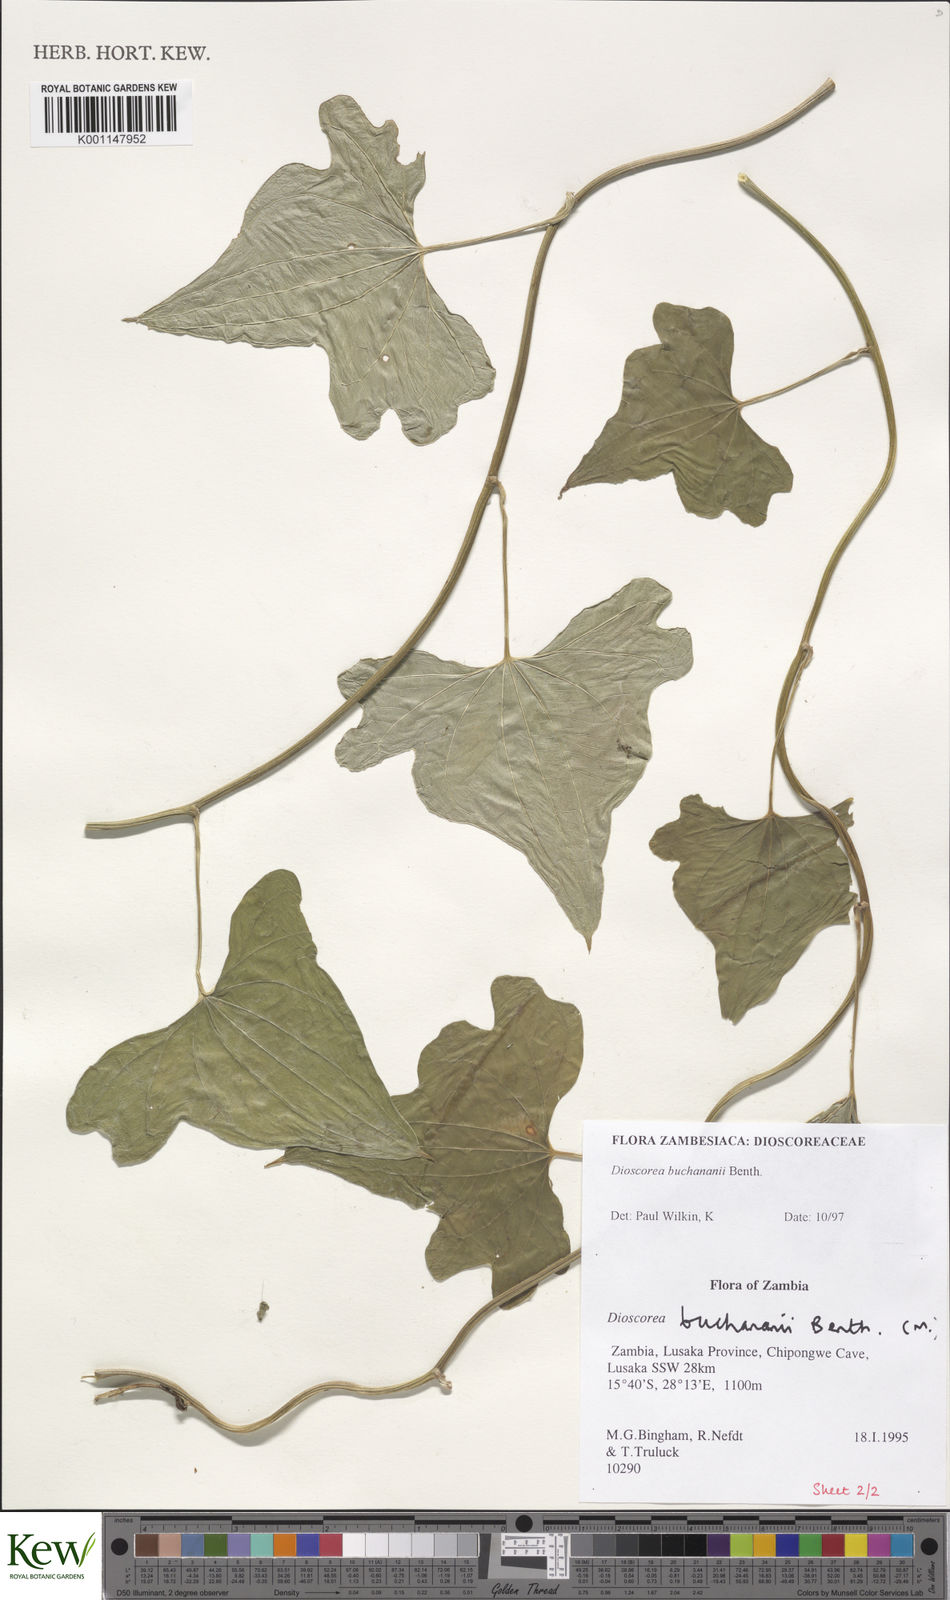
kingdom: Plantae
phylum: Tracheophyta
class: Liliopsida
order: Dioscoreales
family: Dioscoreaceae
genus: Dioscorea
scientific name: Dioscorea buchananii
